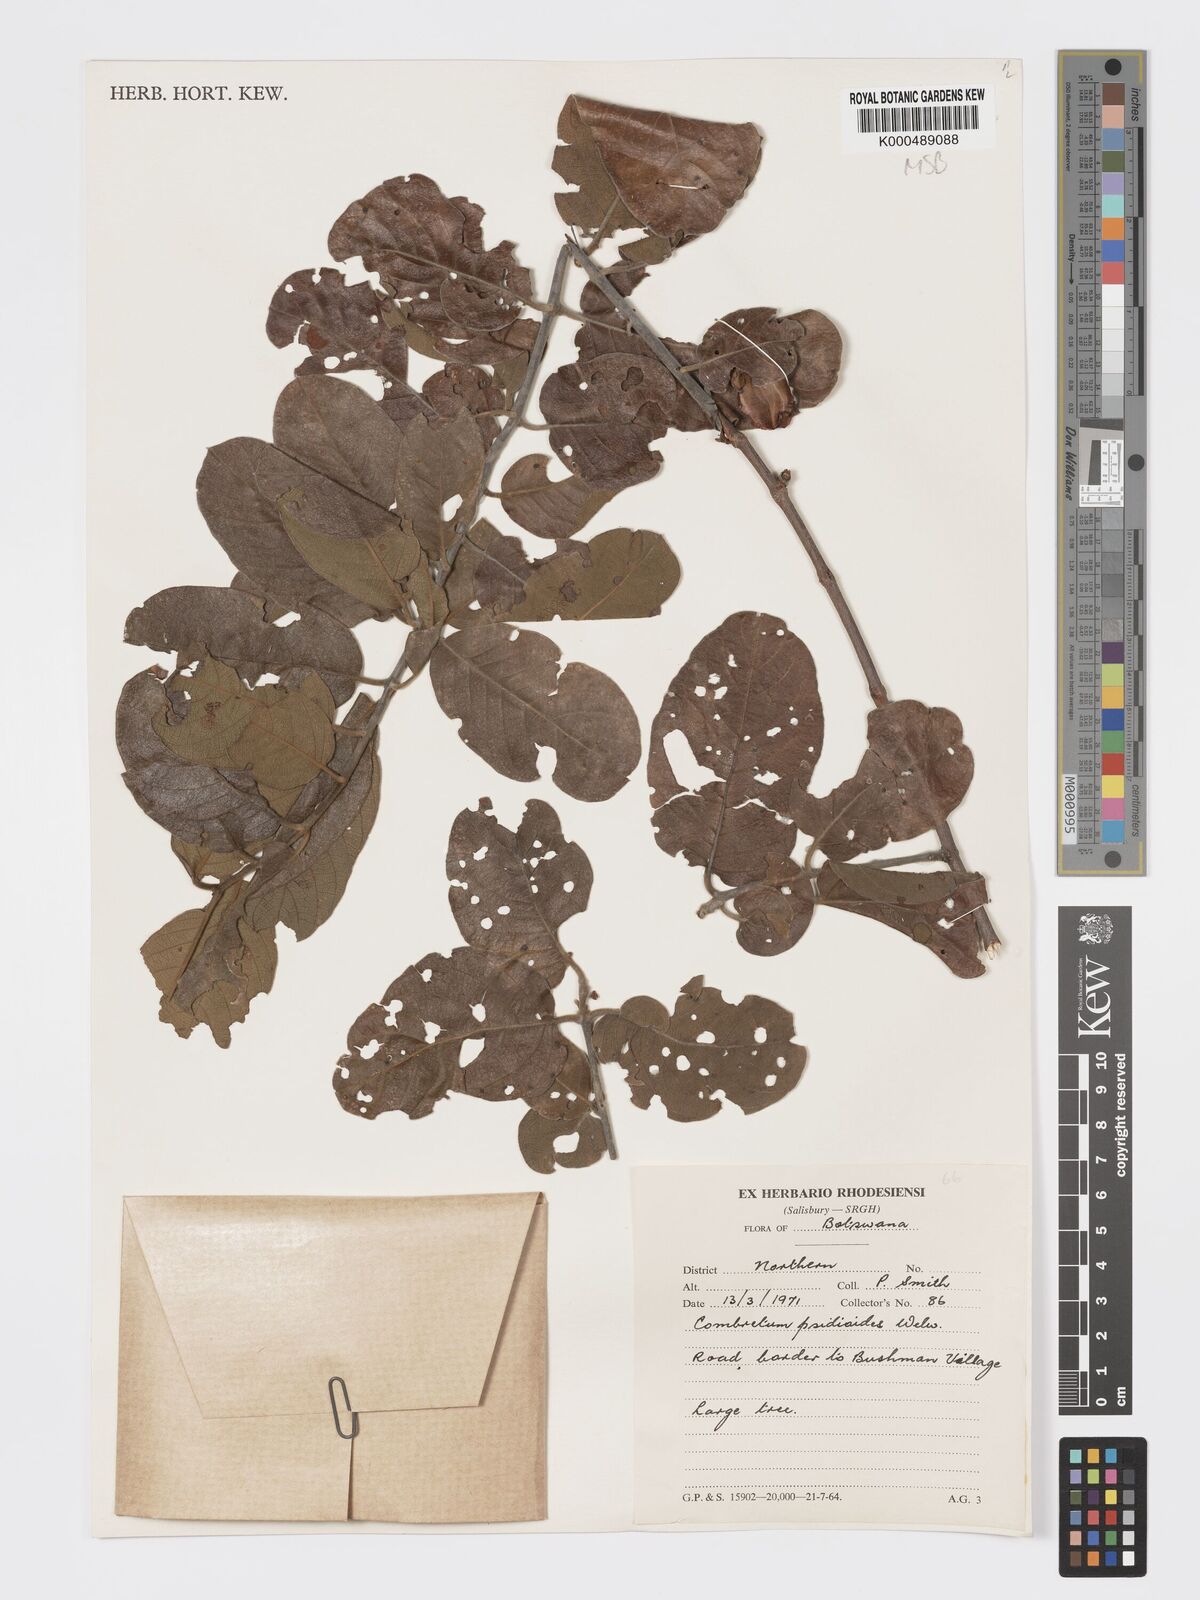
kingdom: Plantae
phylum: Tracheophyta
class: Magnoliopsida
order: Myrtales
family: Combretaceae
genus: Terminalia
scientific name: Terminalia
